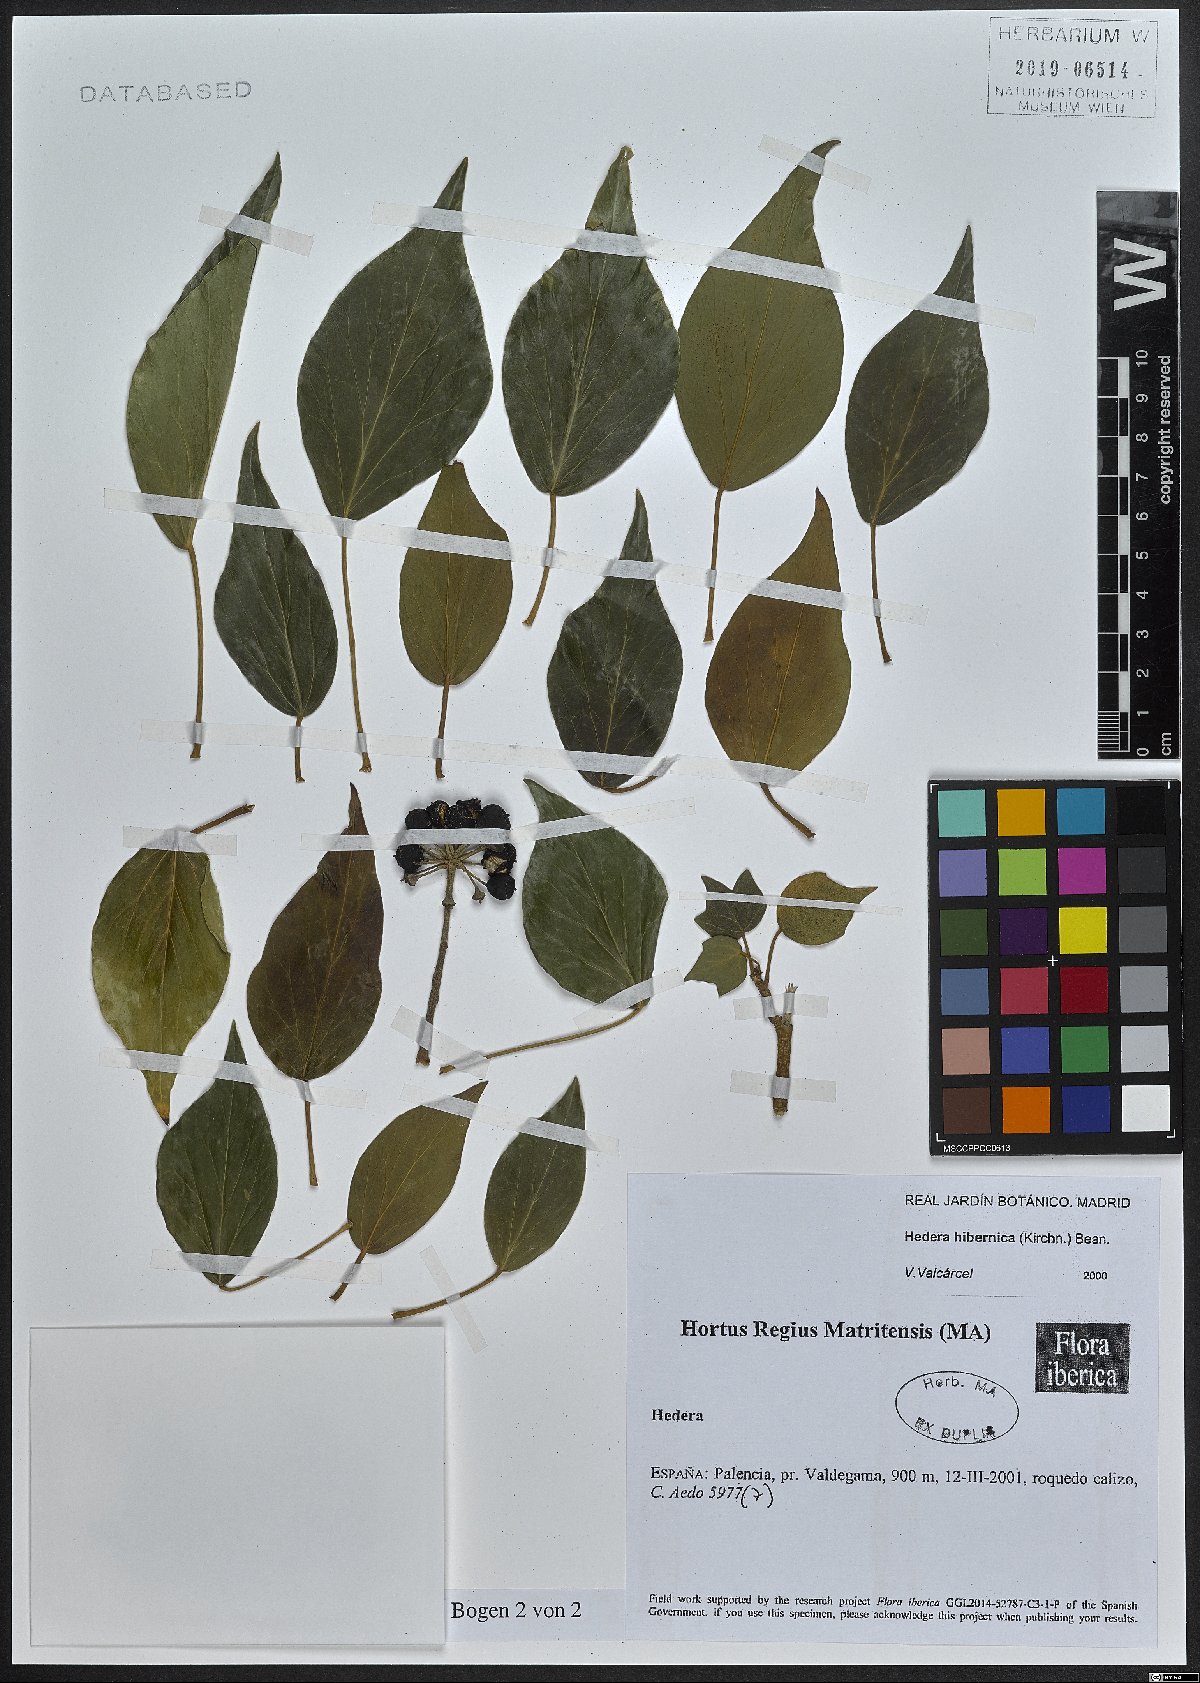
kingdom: Plantae
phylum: Tracheophyta
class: Magnoliopsida
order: Apiales
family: Araliaceae
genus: Hedera
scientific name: Hedera hibernica
